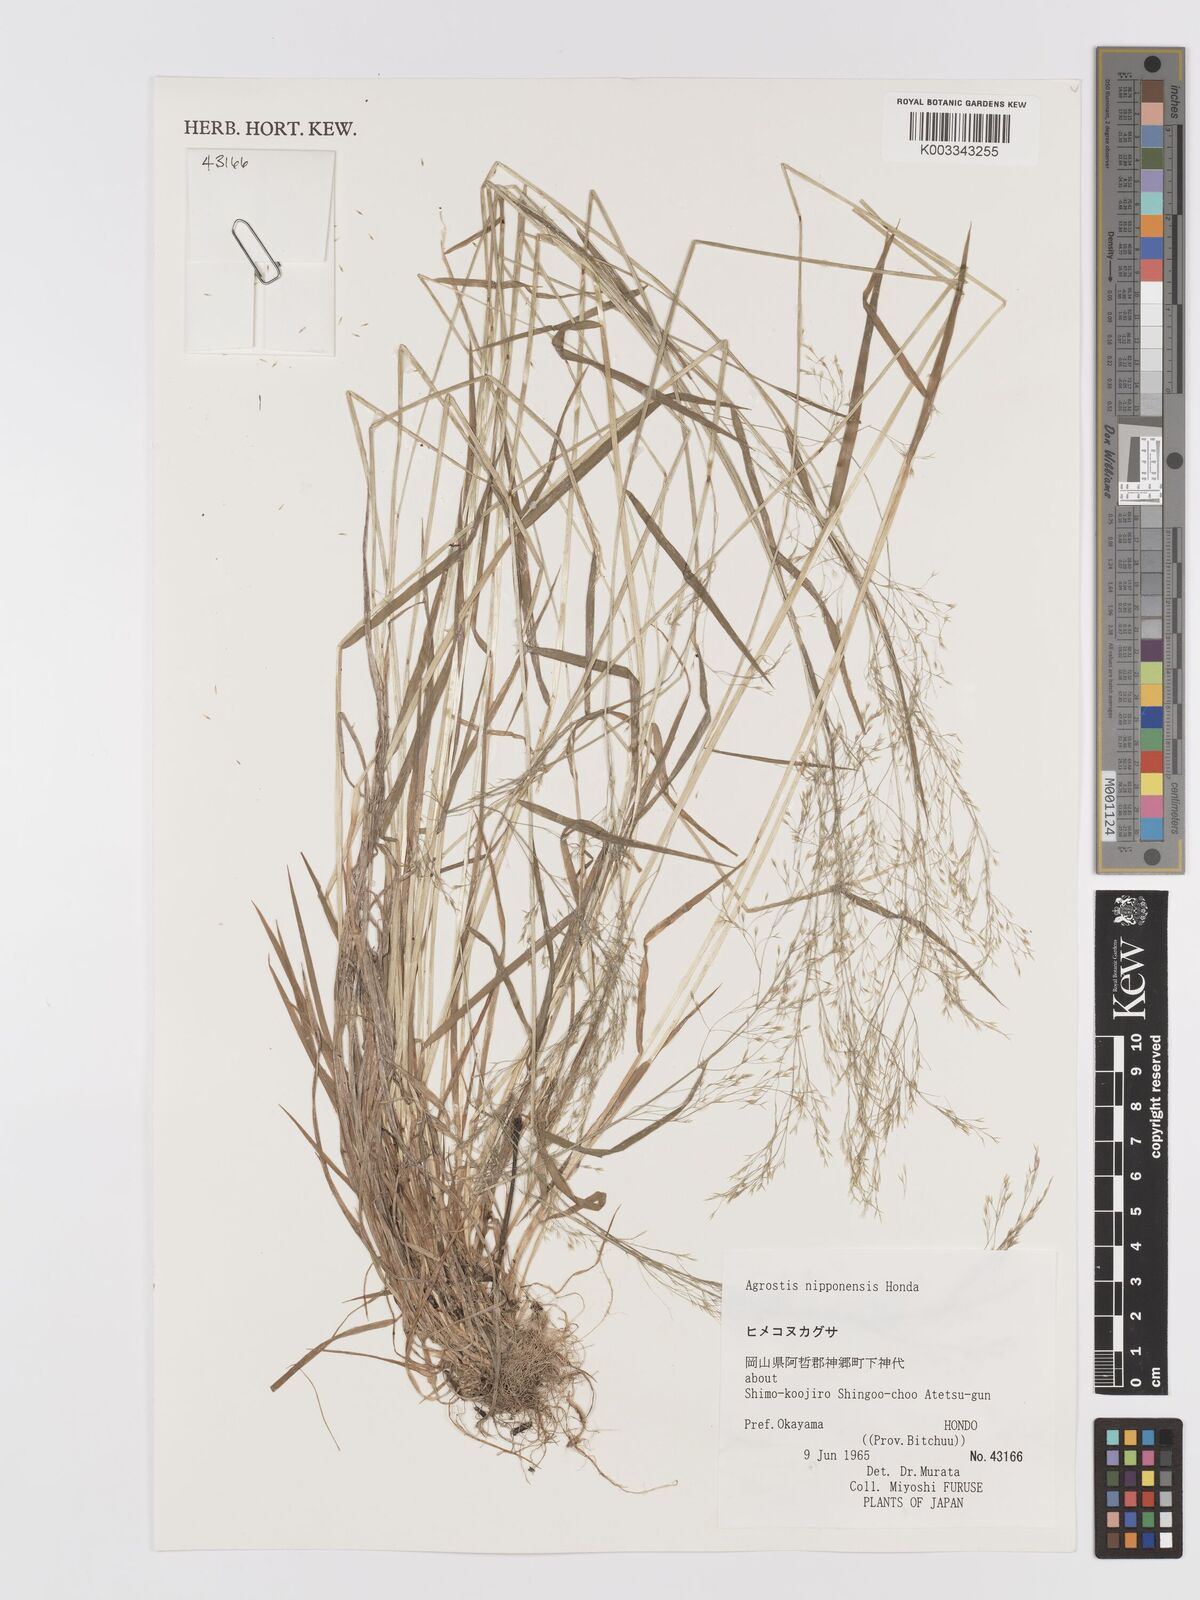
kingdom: Plantae
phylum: Tracheophyta
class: Liliopsida
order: Poales
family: Poaceae
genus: Agrostis
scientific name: Agrostis valvata
